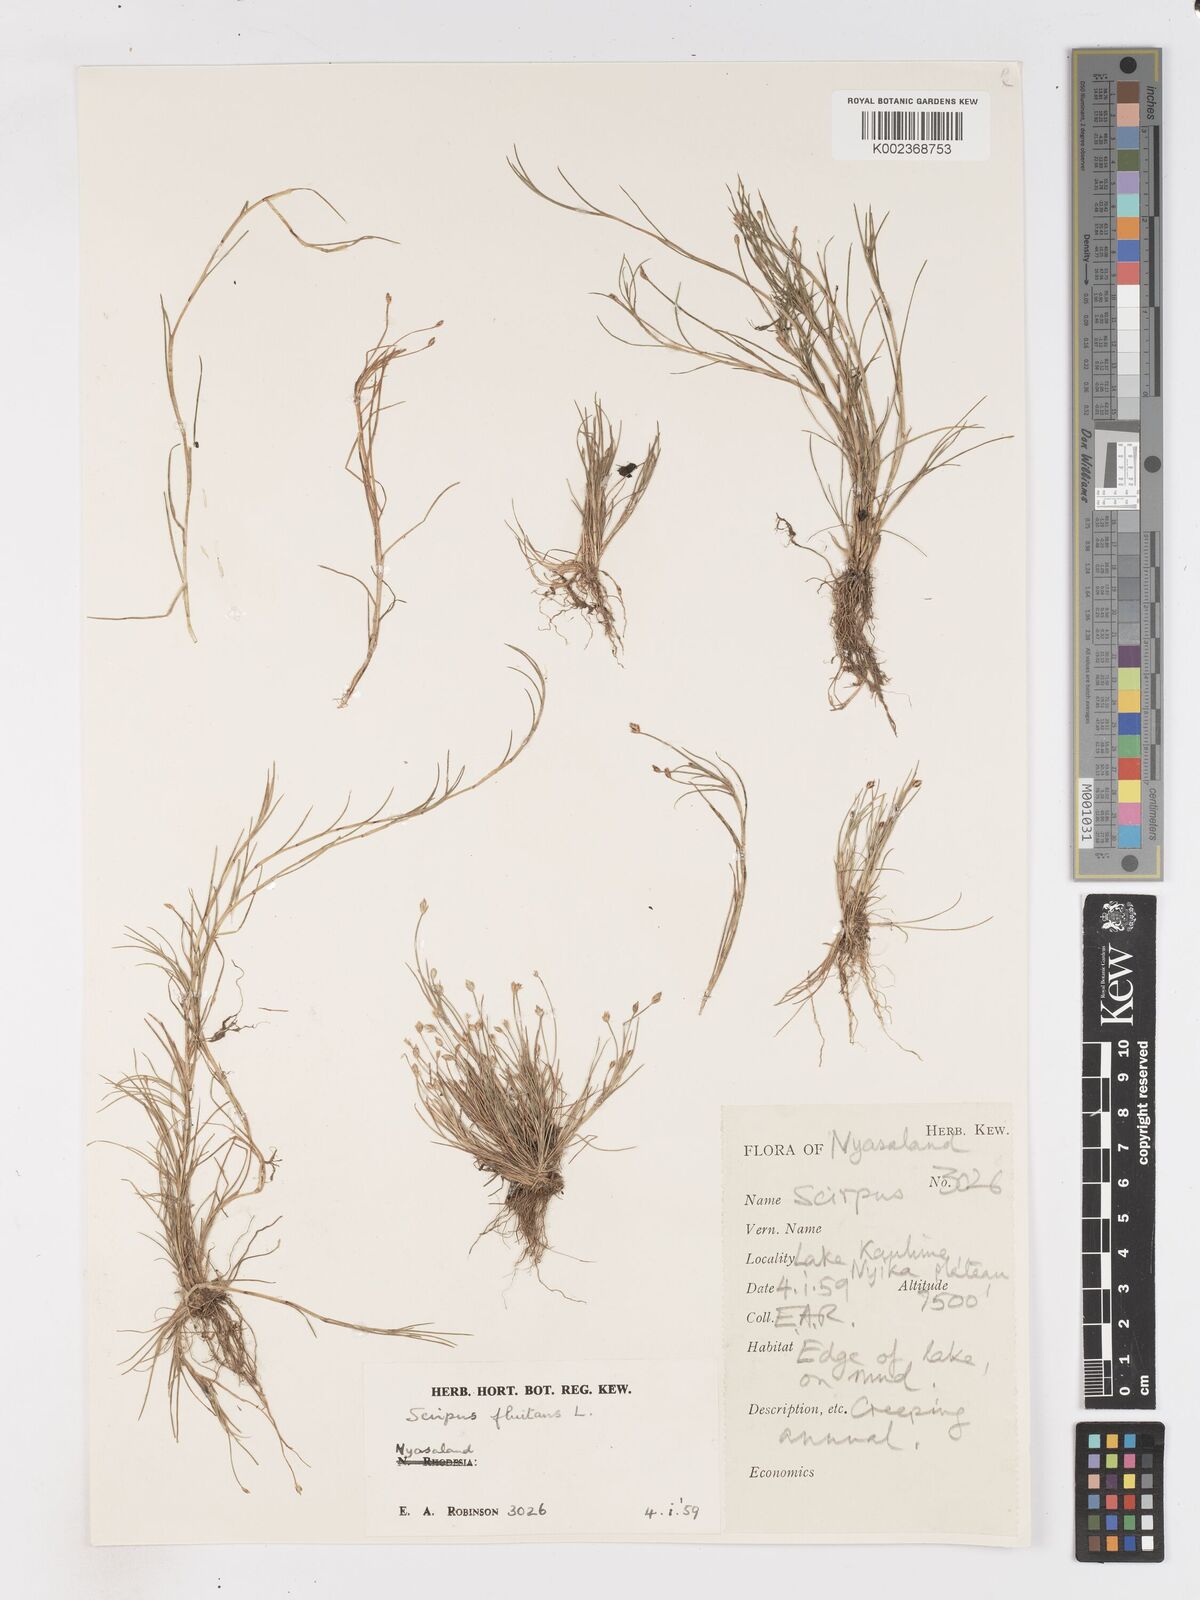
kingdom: Plantae
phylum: Tracheophyta
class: Liliopsida
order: Poales
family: Cyperaceae
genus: Isolepis
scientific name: Isolepis fluitans
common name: Floating club-rush
